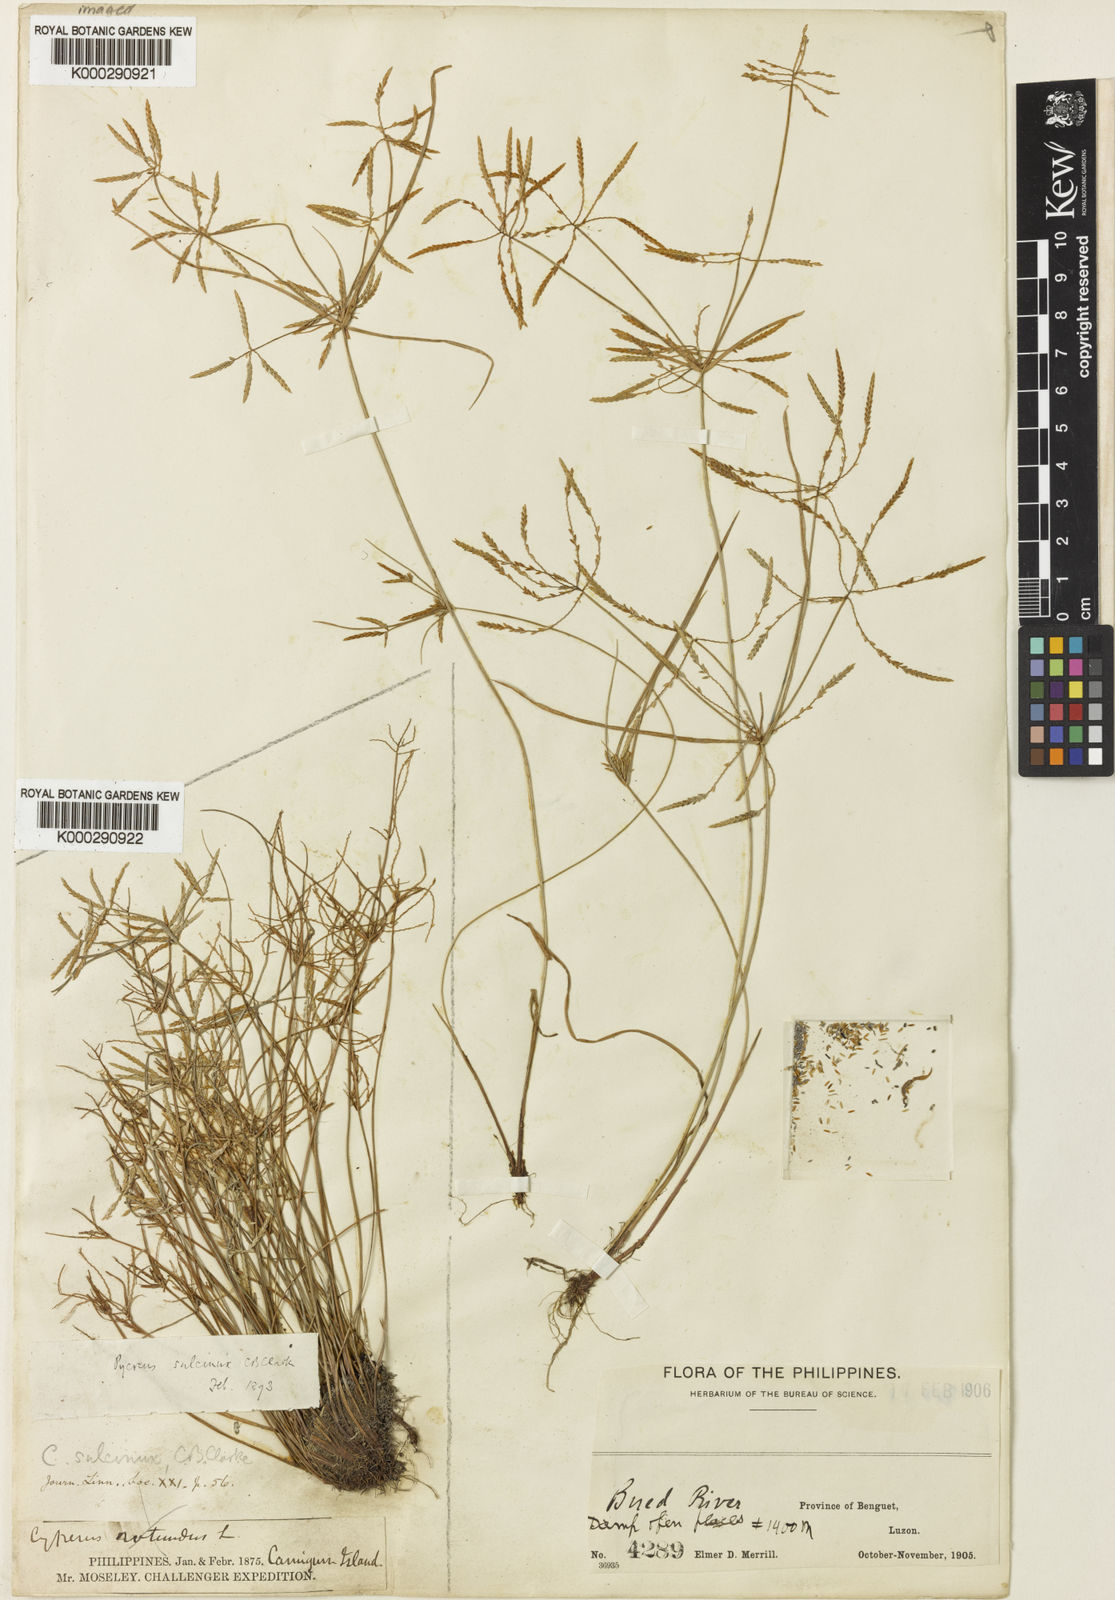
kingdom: Plantae
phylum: Tracheophyta
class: Liliopsida
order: Poales
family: Cyperaceae
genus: Cyperus
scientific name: Cyperus sulcinux
